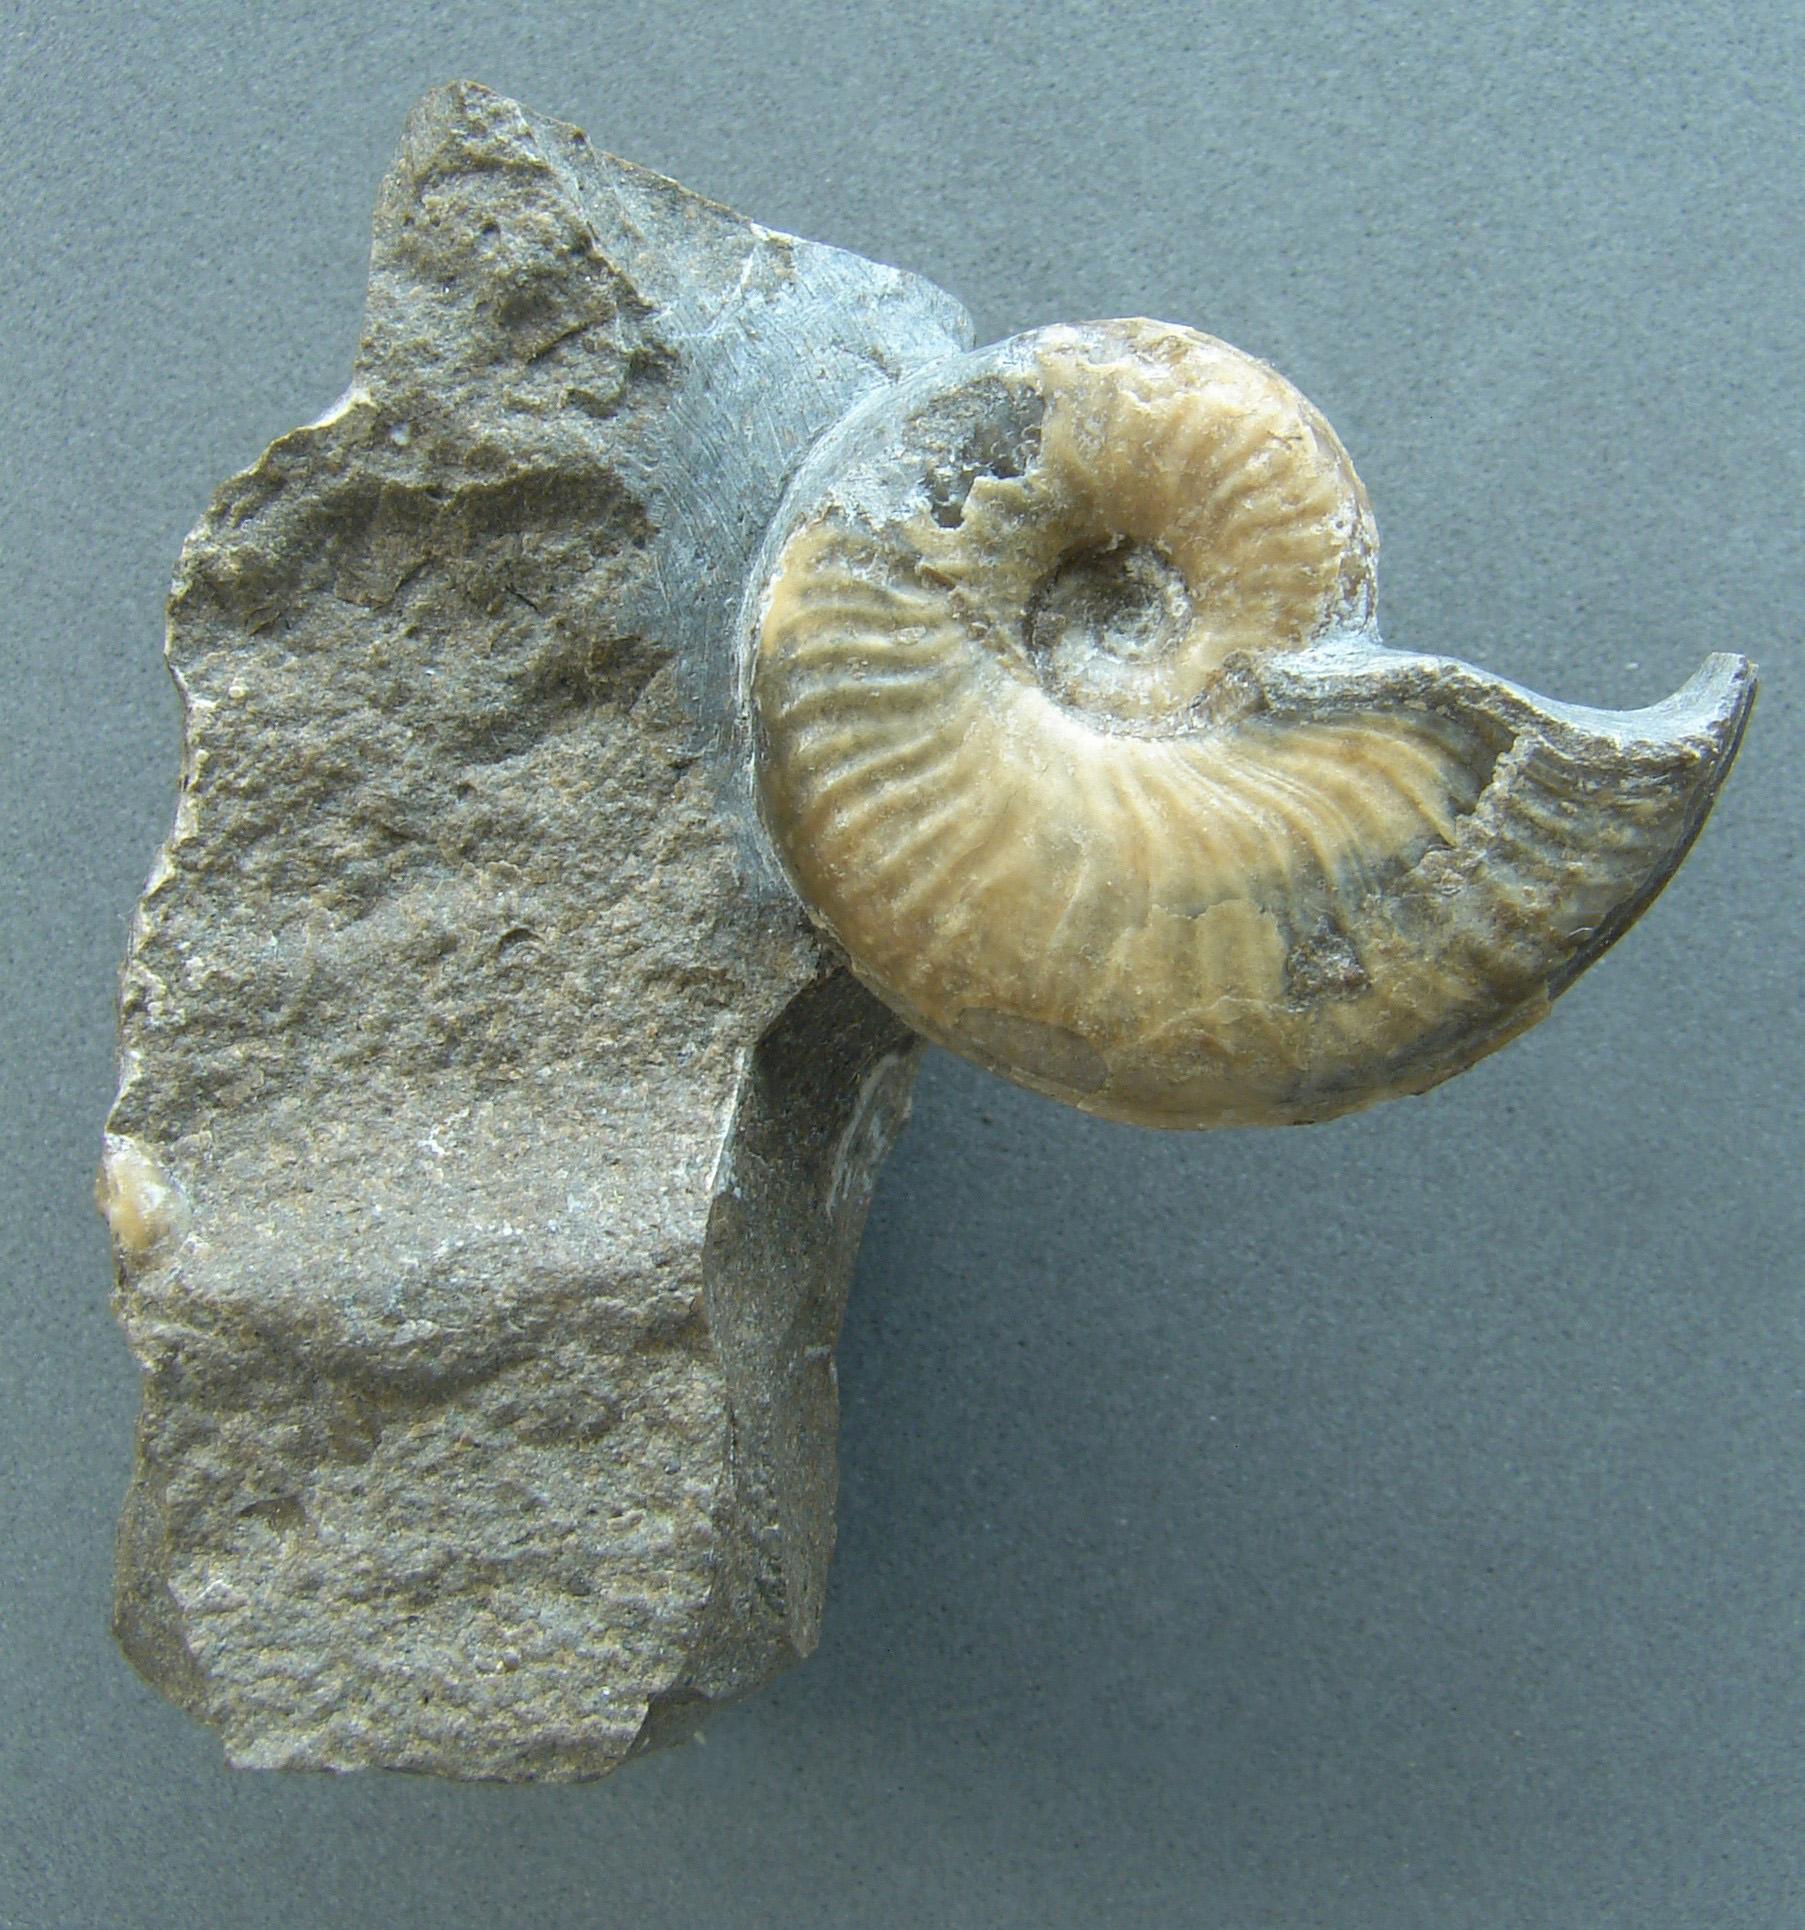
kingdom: Animalia
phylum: Mollusca
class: Cephalopoda
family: Hildoceratidae
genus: Harpoceras
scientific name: Harpoceras
